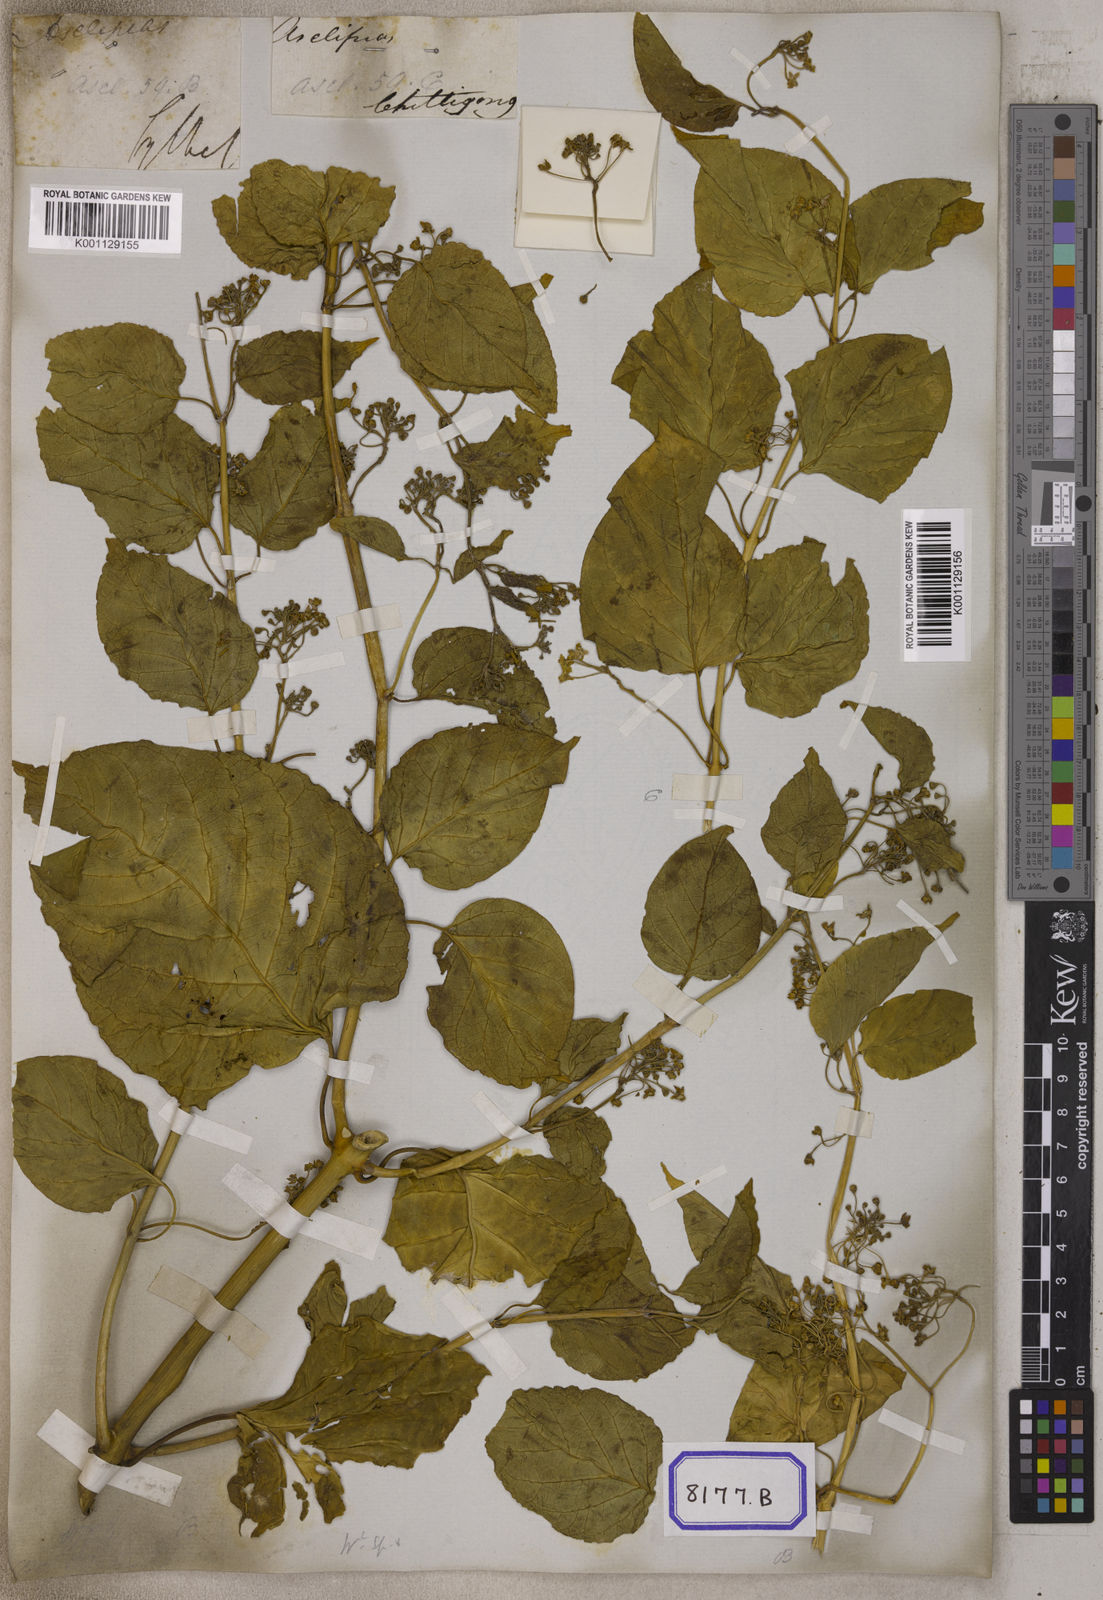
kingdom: Plantae
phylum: Tracheophyta
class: Magnoliopsida
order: Gentianales
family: Apocynaceae
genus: Cosmostigma
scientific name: Cosmostigma cordatum
